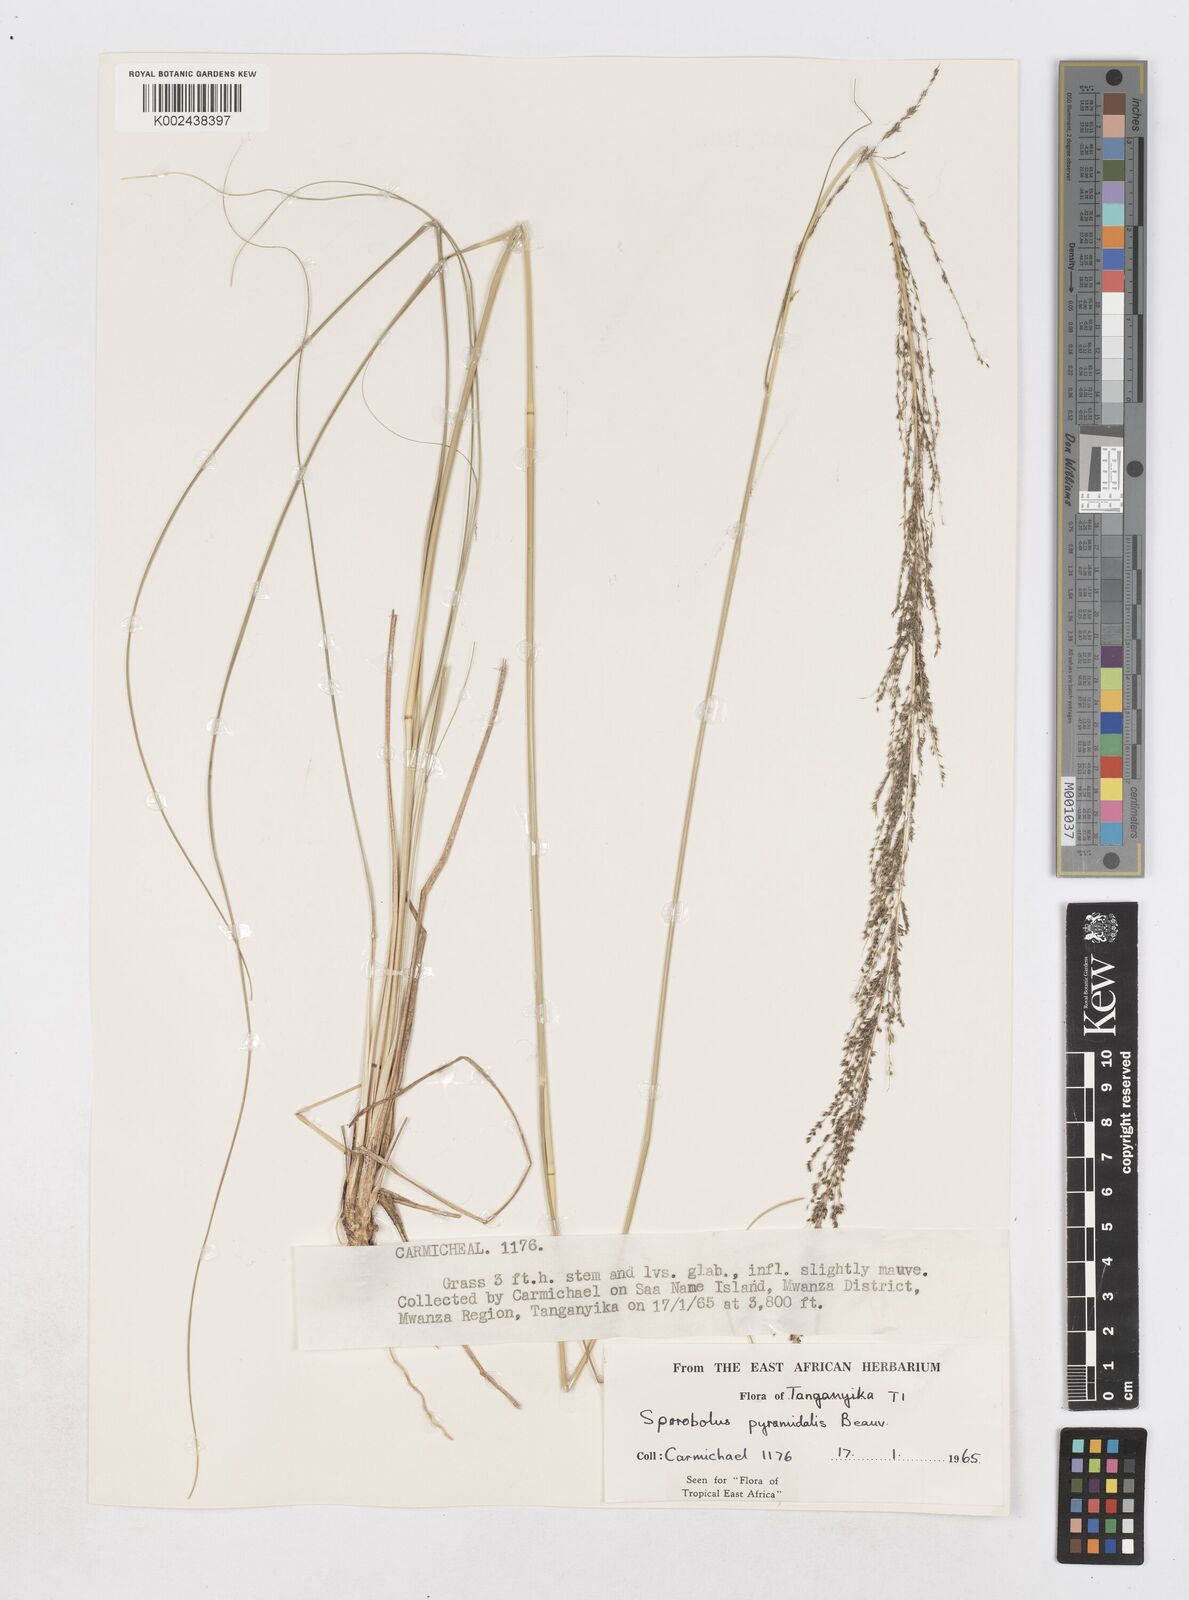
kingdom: Plantae
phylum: Tracheophyta
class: Liliopsida
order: Poales
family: Poaceae
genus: Sporobolus
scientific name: Sporobolus pyramidalis
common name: West indian dropseed
